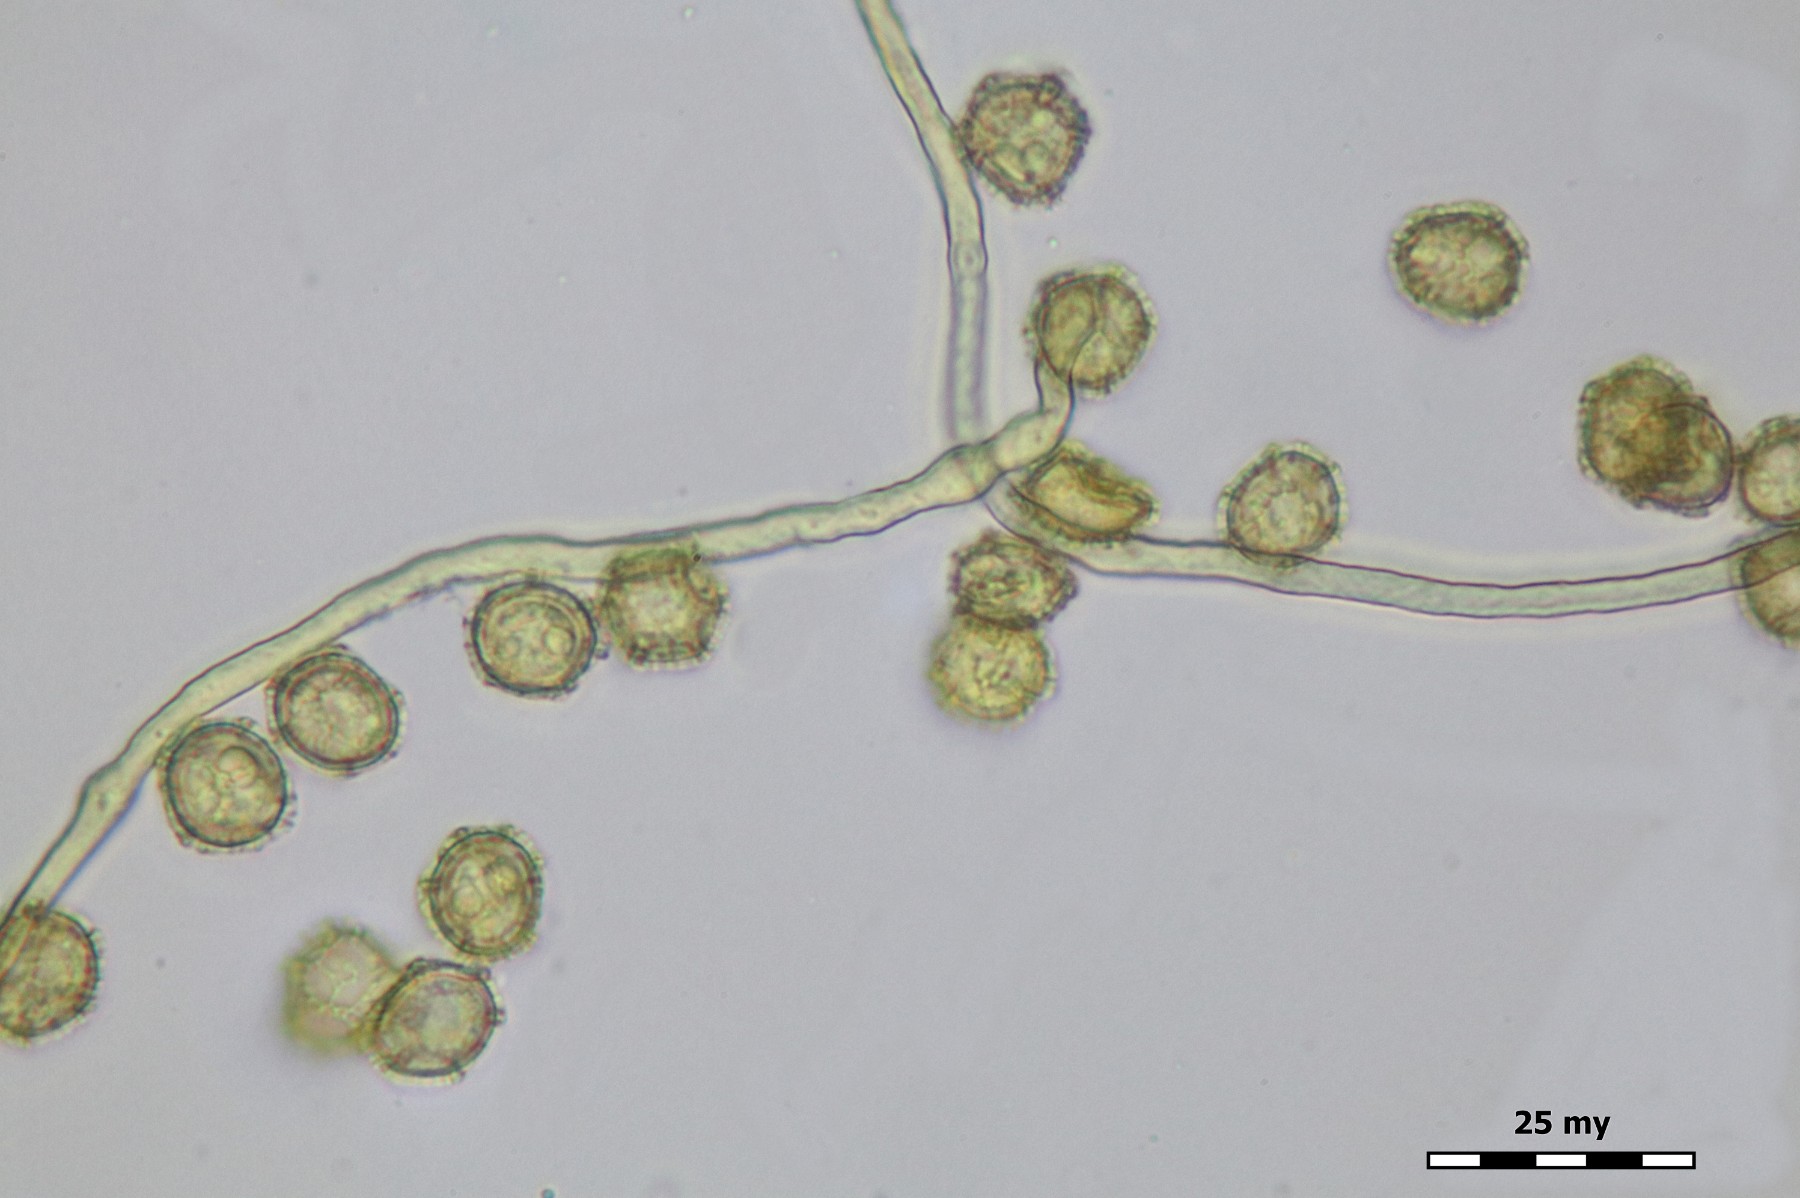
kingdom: Protozoa
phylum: Mycetozoa
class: Myxomycetes
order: Trichiales
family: Trichiaceae
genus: Oligonema
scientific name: Oligonema schweinitzii
